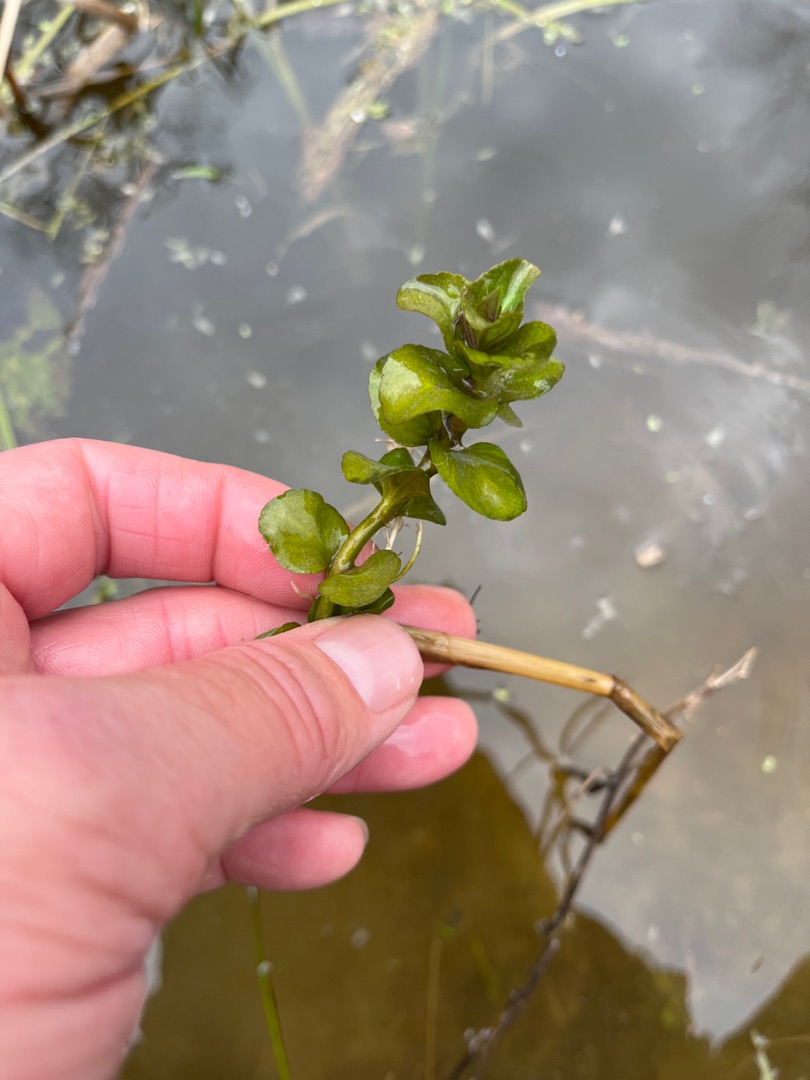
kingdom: Plantae
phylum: Tracheophyta
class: Magnoliopsida
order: Lamiales
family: Plantaginaceae
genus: Veronica
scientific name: Veronica beccabunga
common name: Tykbladet ærenpris
